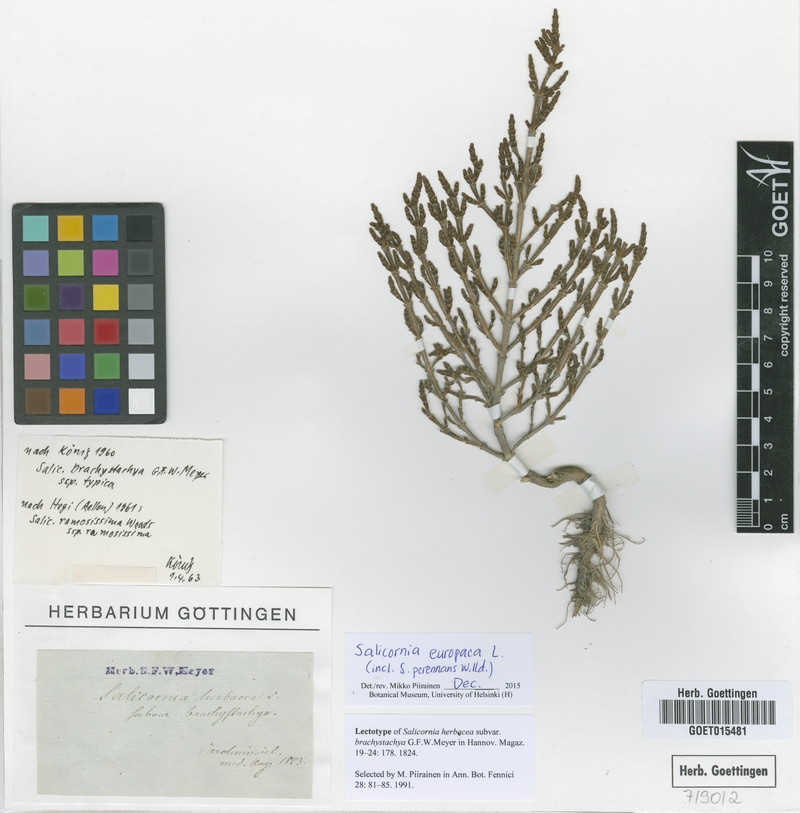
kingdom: Plantae
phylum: Tracheophyta
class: Magnoliopsida
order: Caryophyllales
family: Amaranthaceae
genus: Salicornia
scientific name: Salicornia europaea
